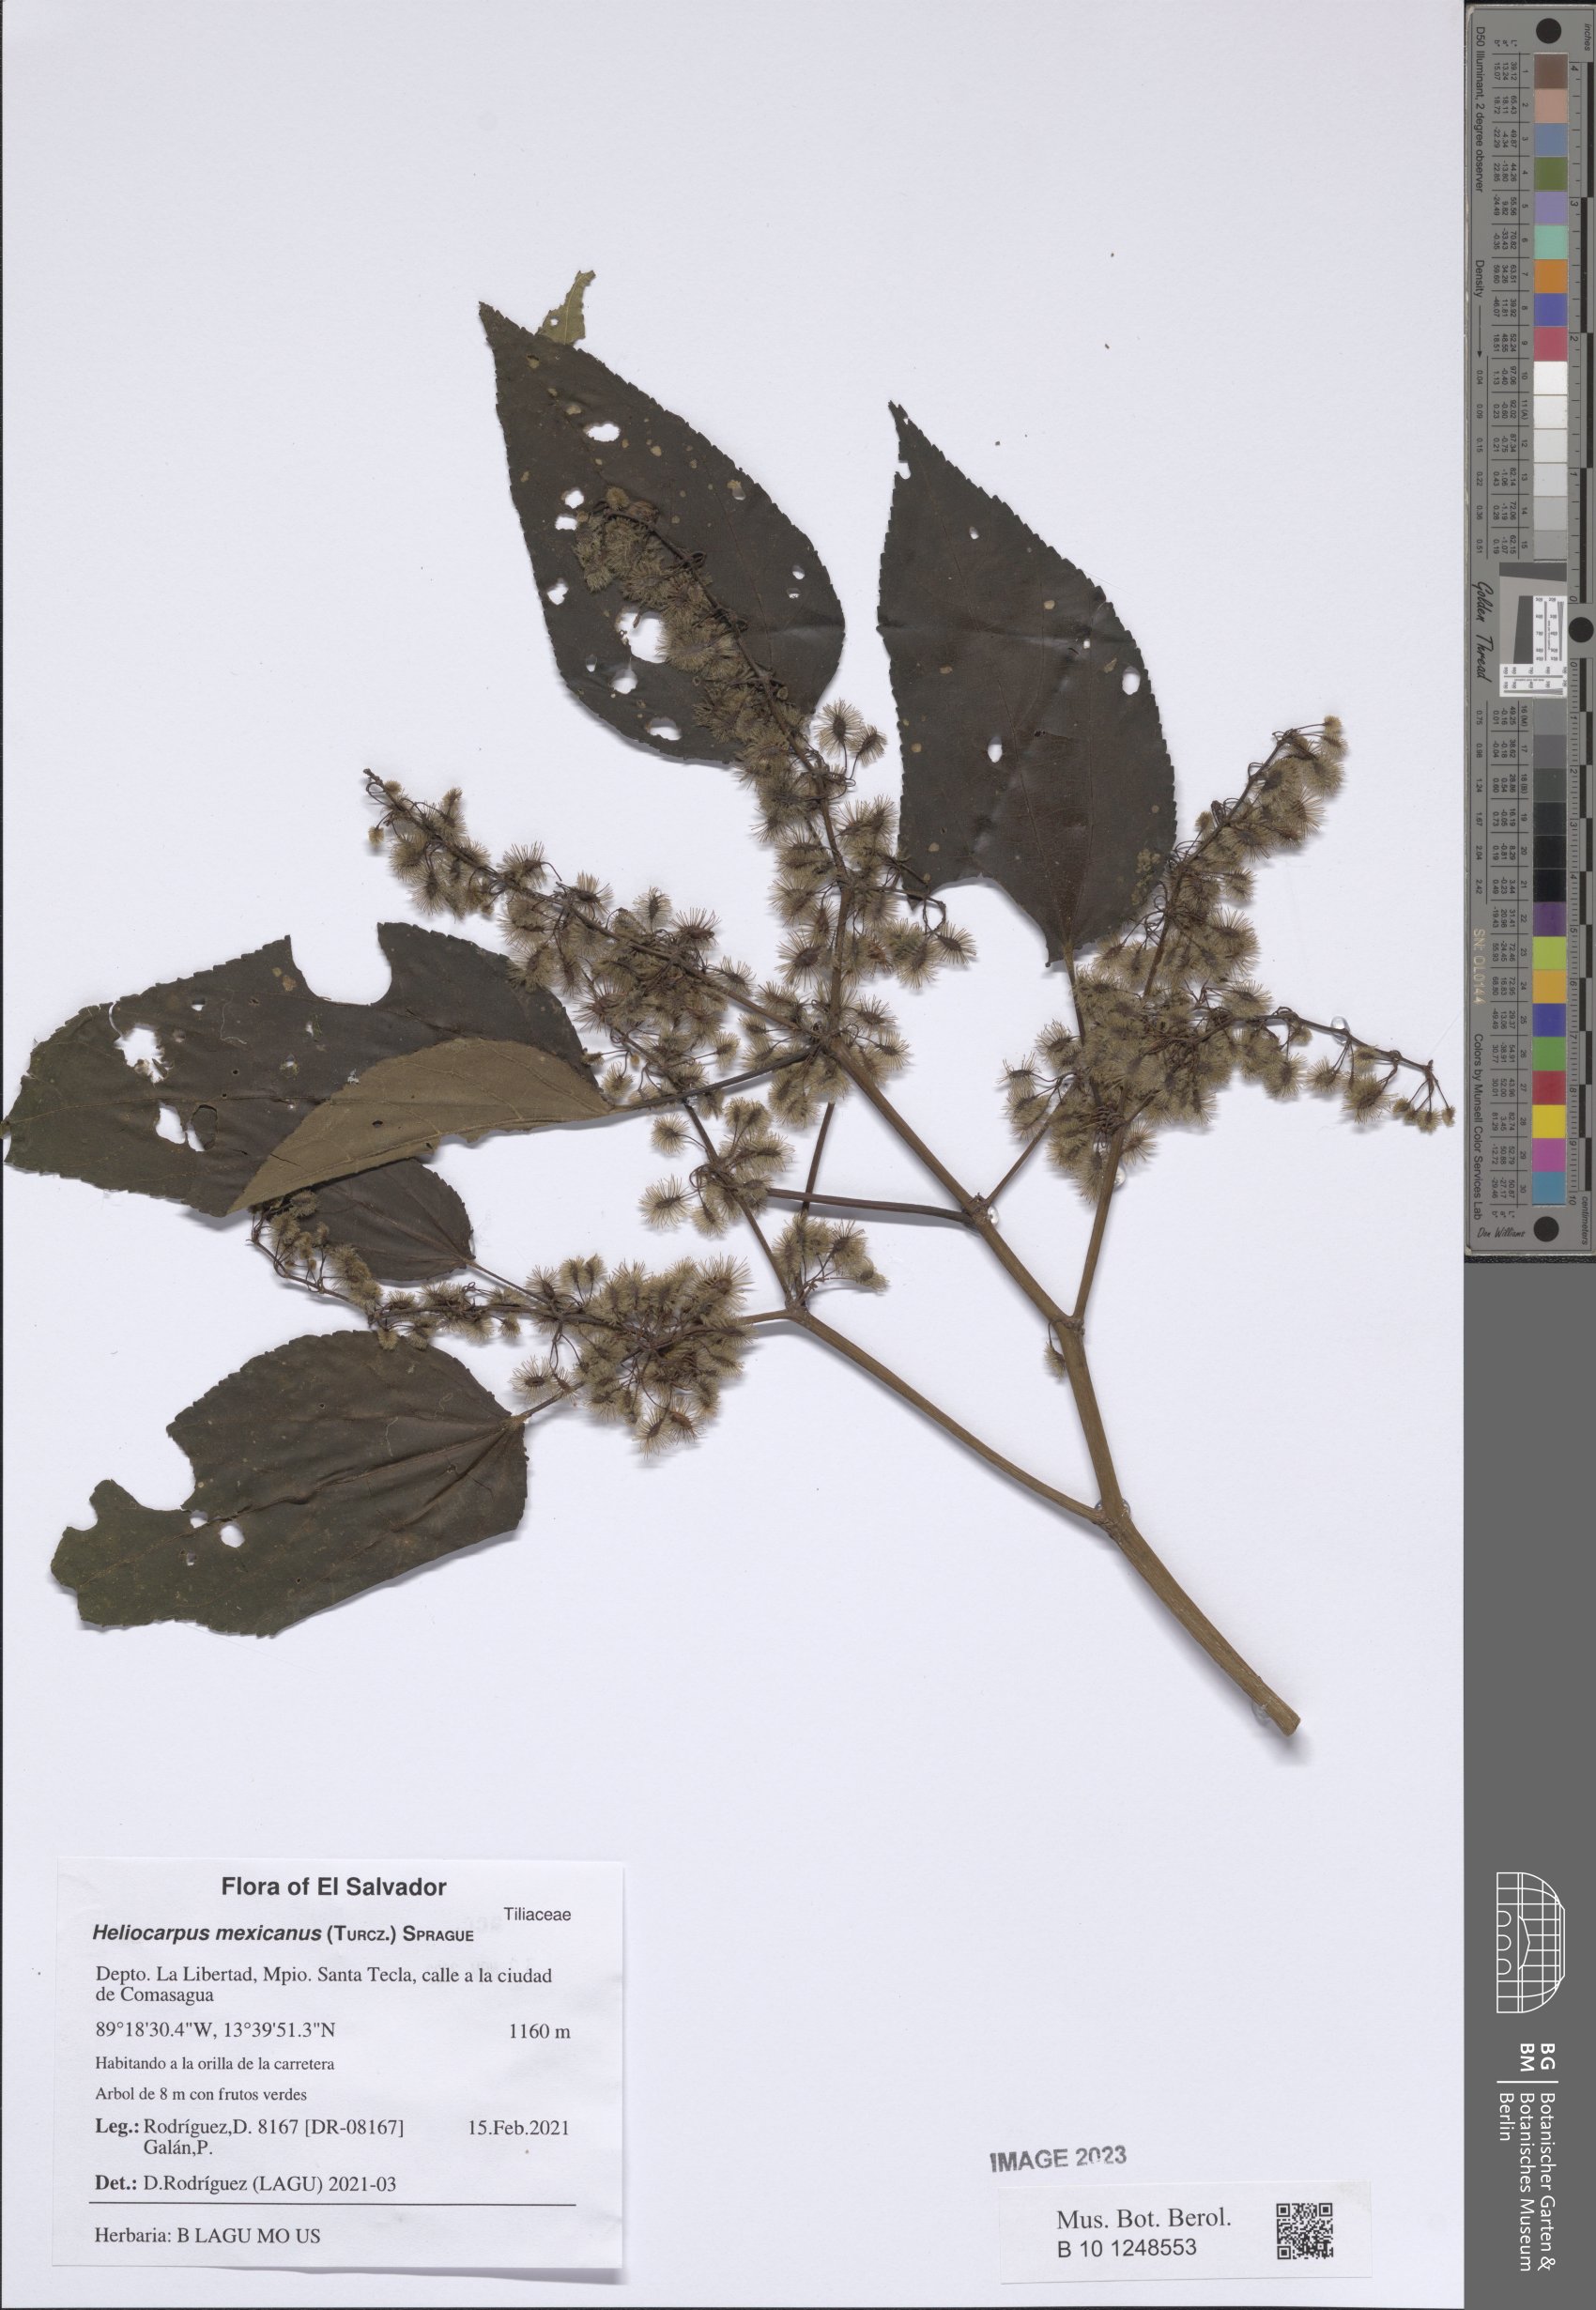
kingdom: Plantae
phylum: Tracheophyta
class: Magnoliopsida
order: Malvales
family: Malvaceae
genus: Heliocarpus
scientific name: Heliocarpus mexicanus
